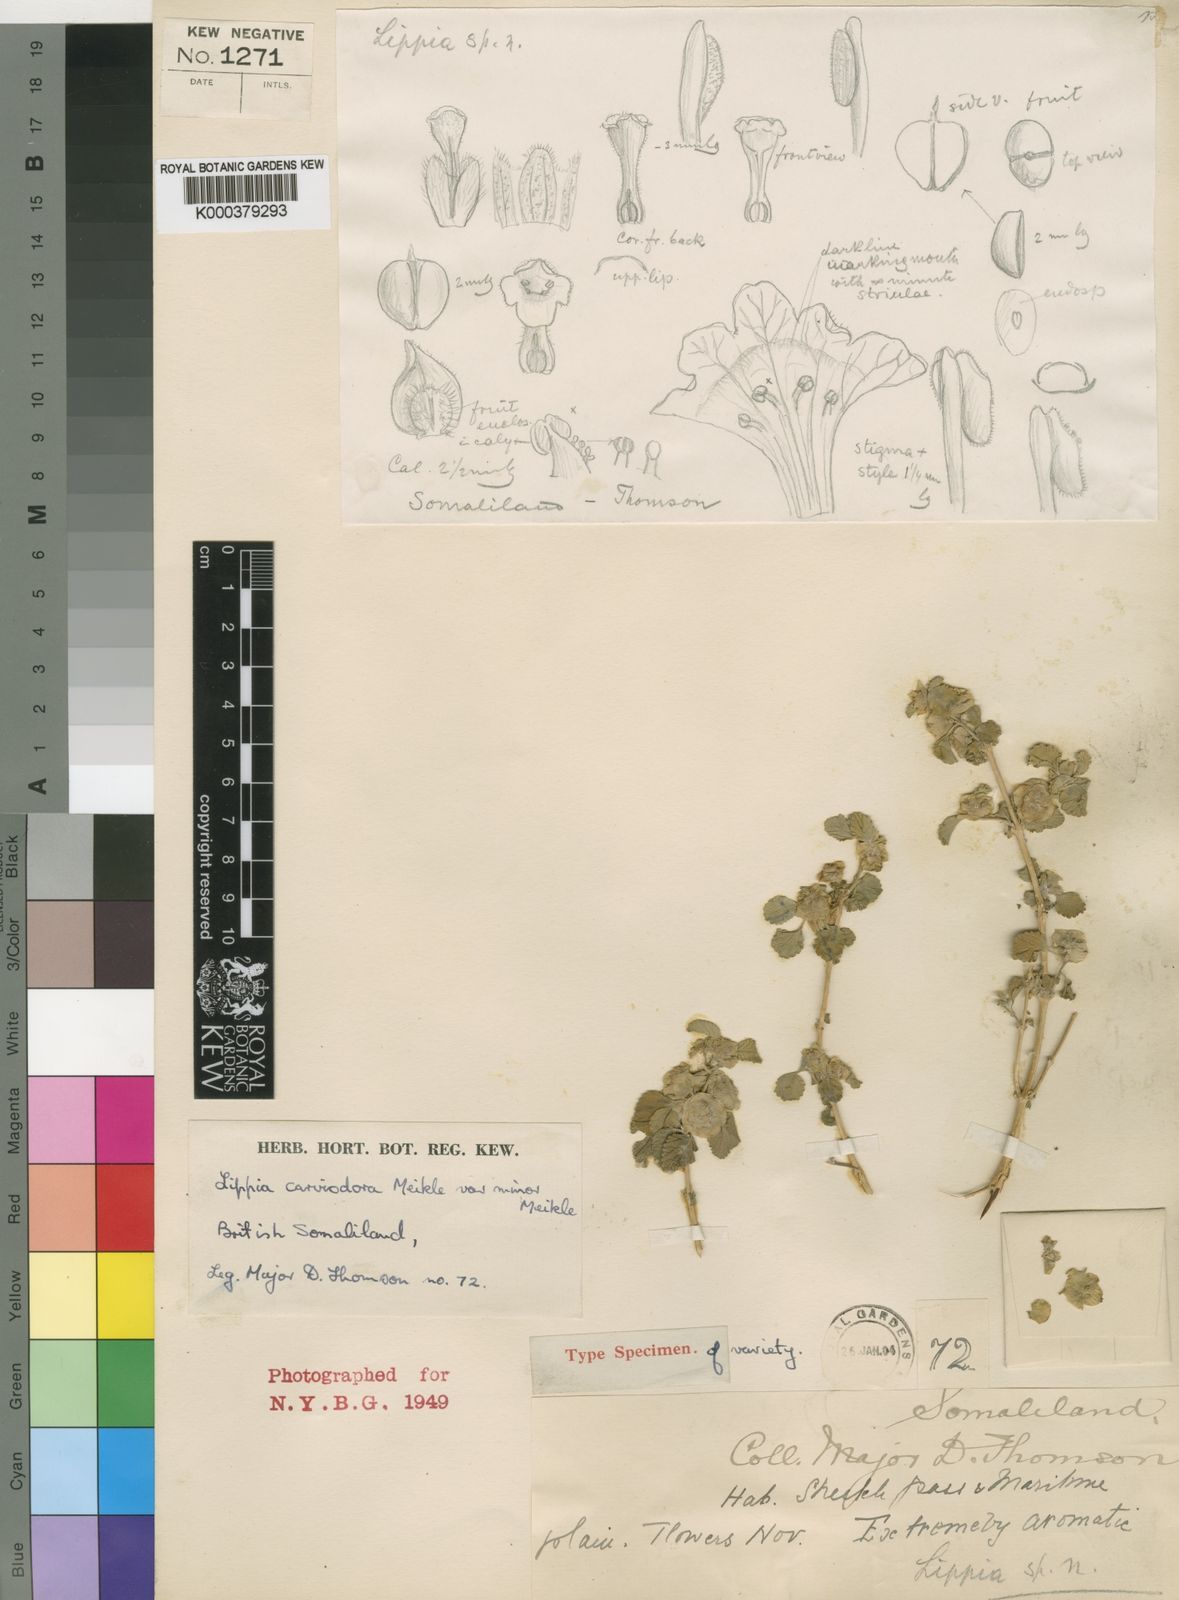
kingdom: Plantae
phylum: Tracheophyta
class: Magnoliopsida
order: Lamiales
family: Verbenaceae
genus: Lippia
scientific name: Lippia carviodora
